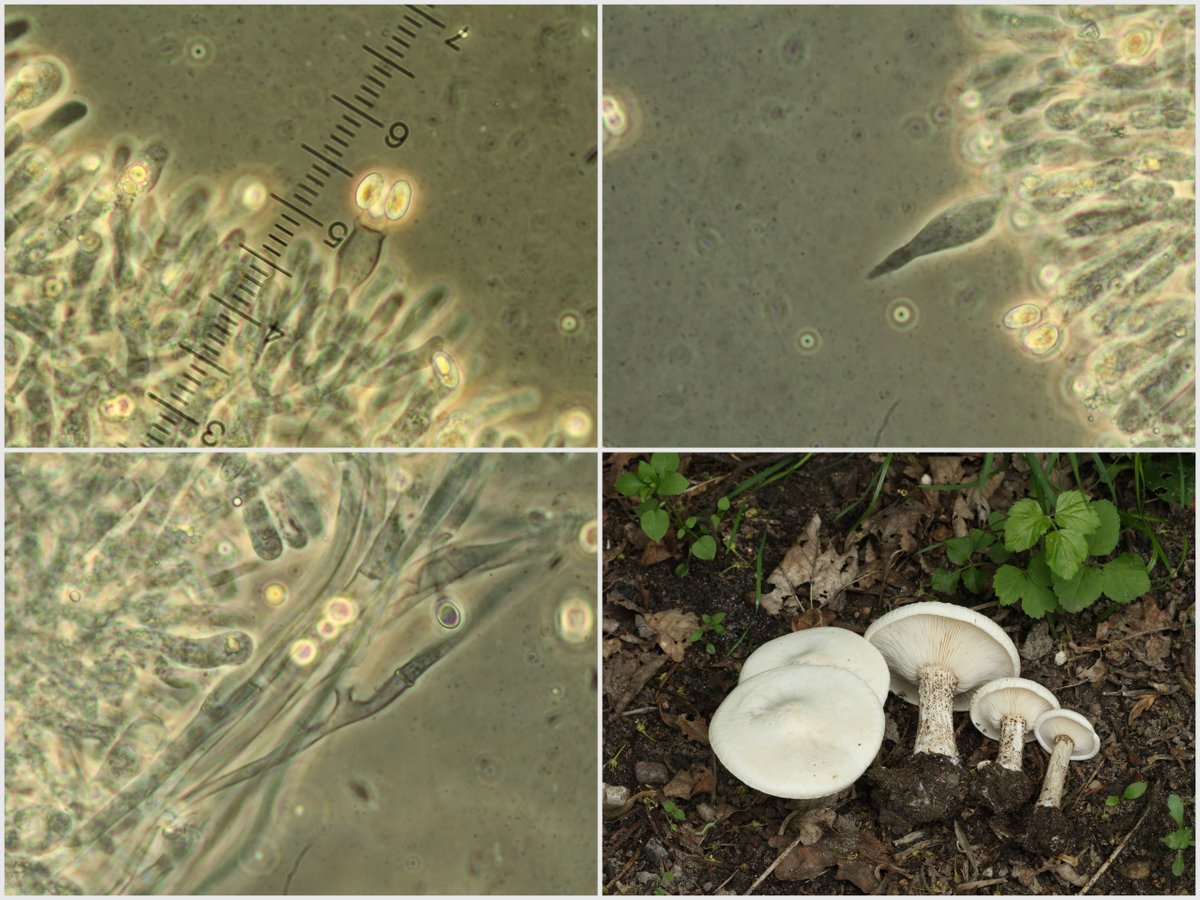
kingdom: Fungi
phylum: Basidiomycota
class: Agaricomycetes
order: Agaricales
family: Tricholomataceae
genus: Melanoleuca
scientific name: Melanoleuca verrucipes
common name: rufodet munkehat
